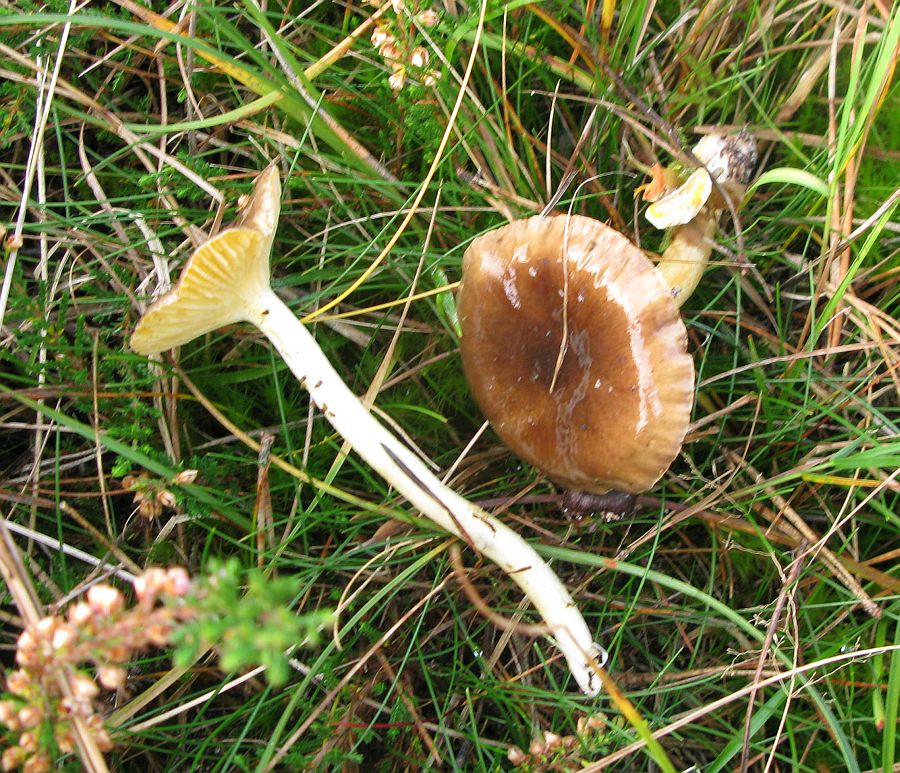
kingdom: Fungi
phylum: Basidiomycota
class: Agaricomycetes
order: Agaricales
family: Hygrophoraceae
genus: Hygrophorus
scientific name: Hygrophorus hypothejus
